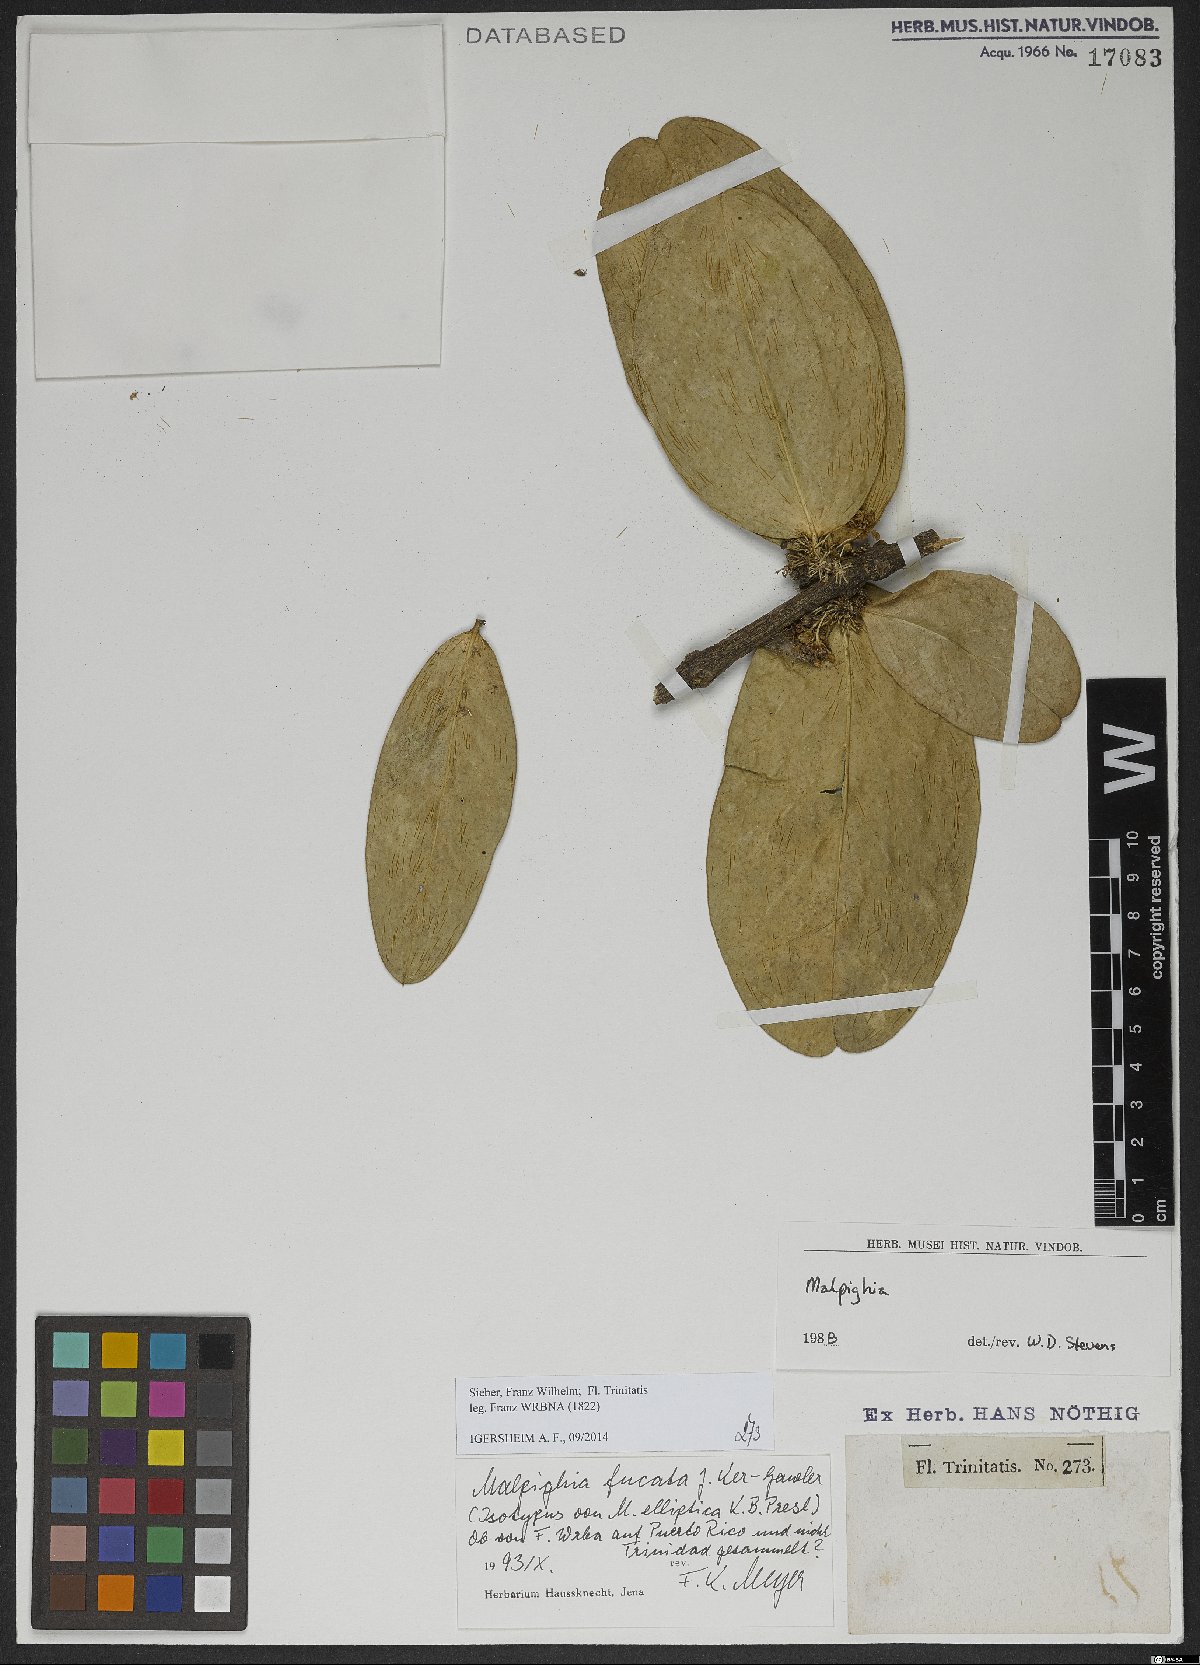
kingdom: Plantae
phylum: Tracheophyta
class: Magnoliopsida
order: Malpighiales
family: Malpighiaceae
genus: Malpighia
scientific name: Malpighia fucata
